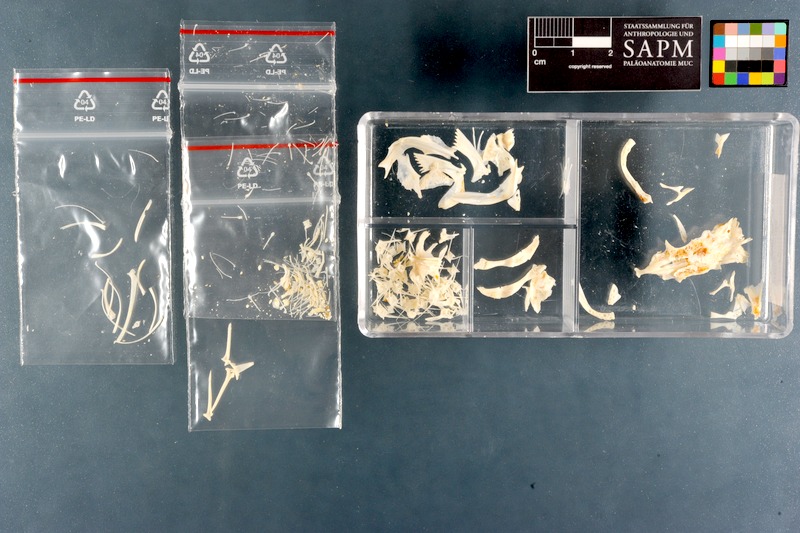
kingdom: Animalia
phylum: Chordata
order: Siluriformes
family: Plotosidae
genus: Plotosus
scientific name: Plotosus lineatus
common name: Striped eel catfish
